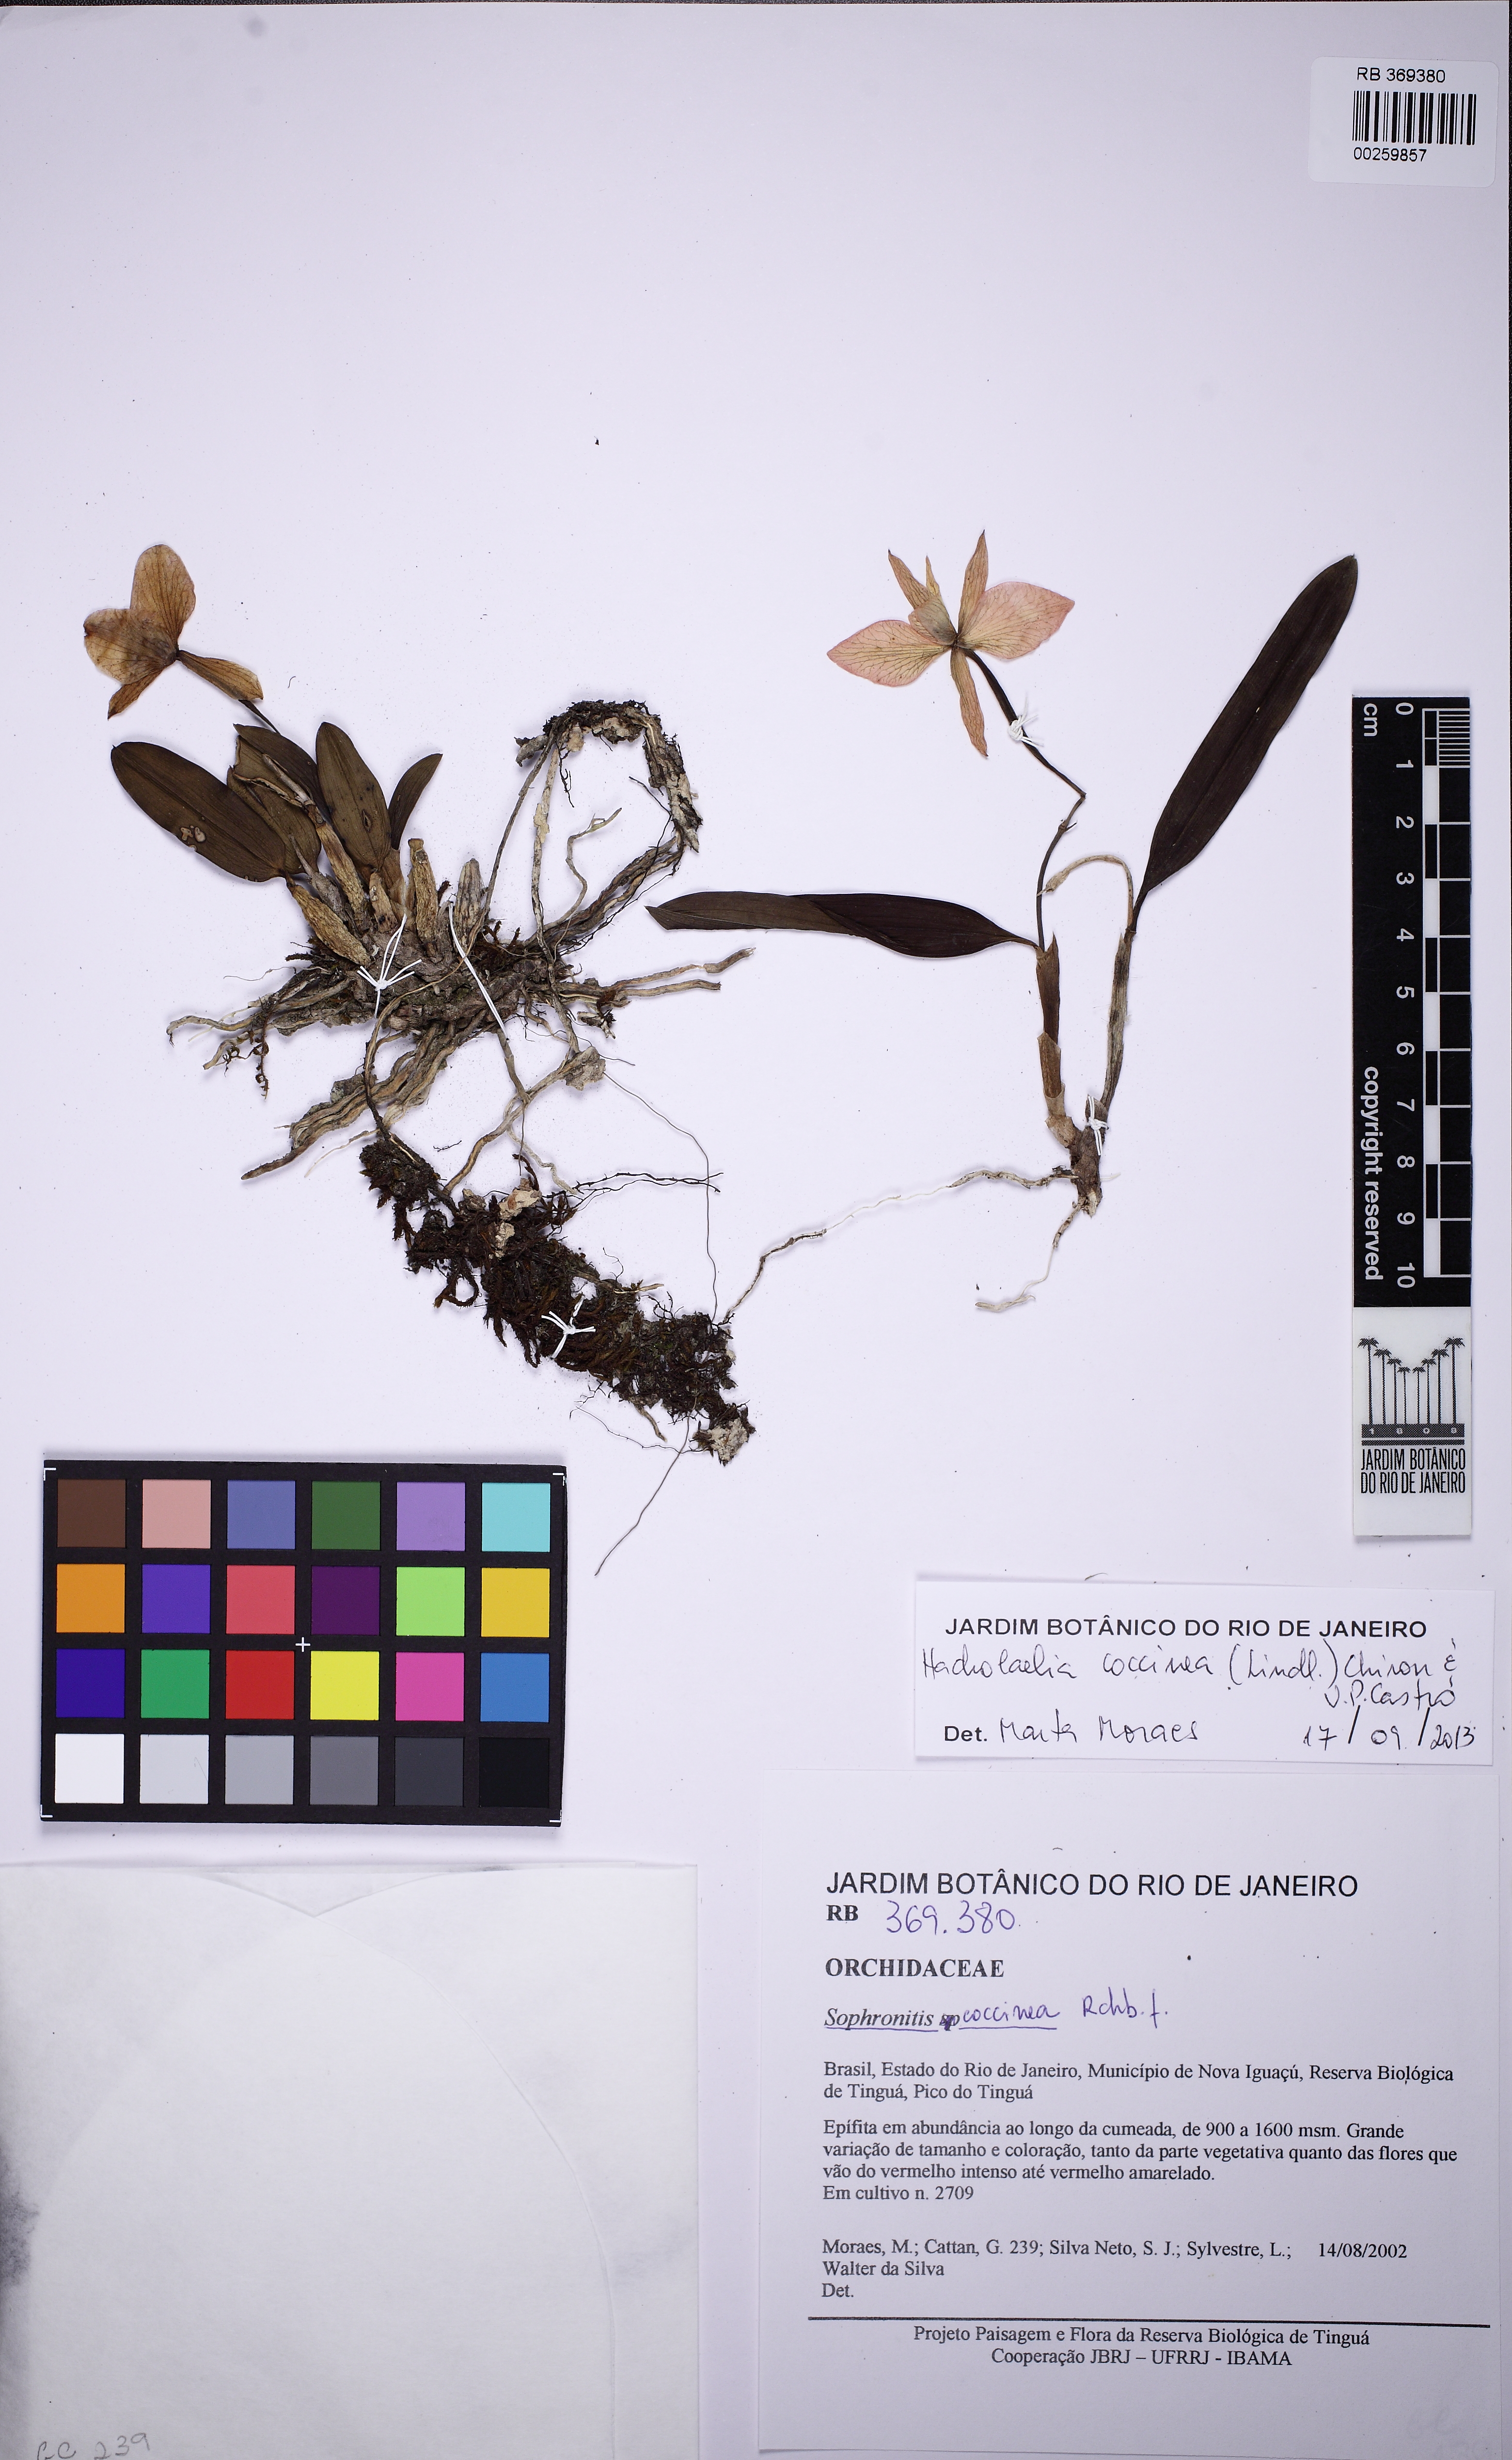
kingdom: Plantae
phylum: Tracheophyta
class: Liliopsida
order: Asparagales
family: Orchidaceae
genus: Cattleya
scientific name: Cattleya coccinea
